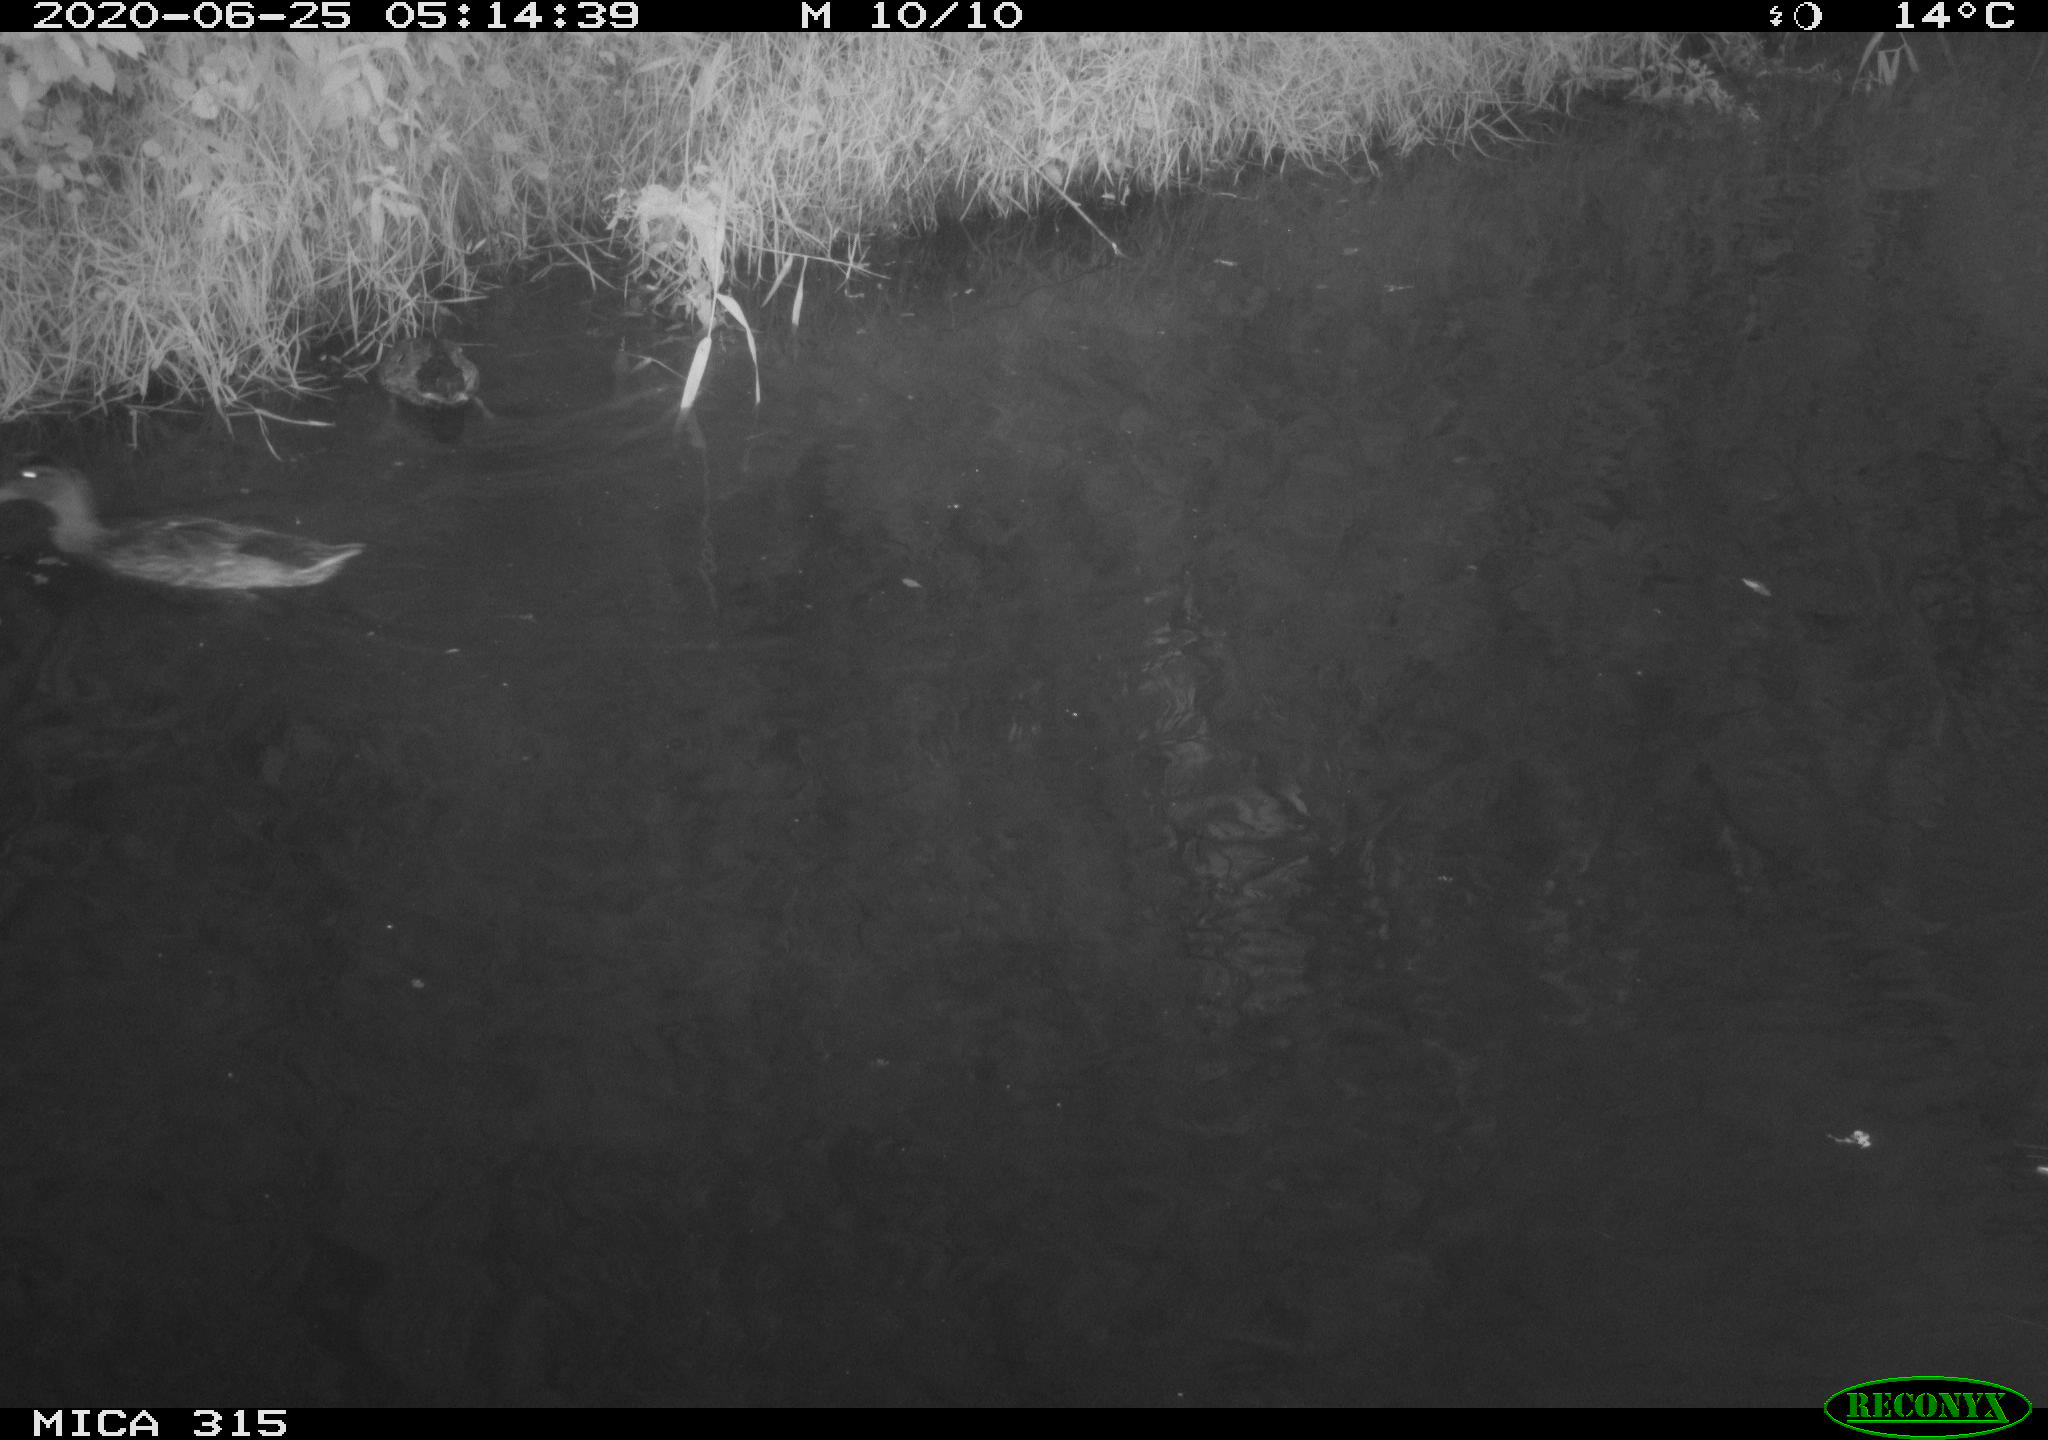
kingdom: Animalia
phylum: Chordata
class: Aves
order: Anseriformes
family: Anatidae
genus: Anas
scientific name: Anas platyrhynchos
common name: Mallard
